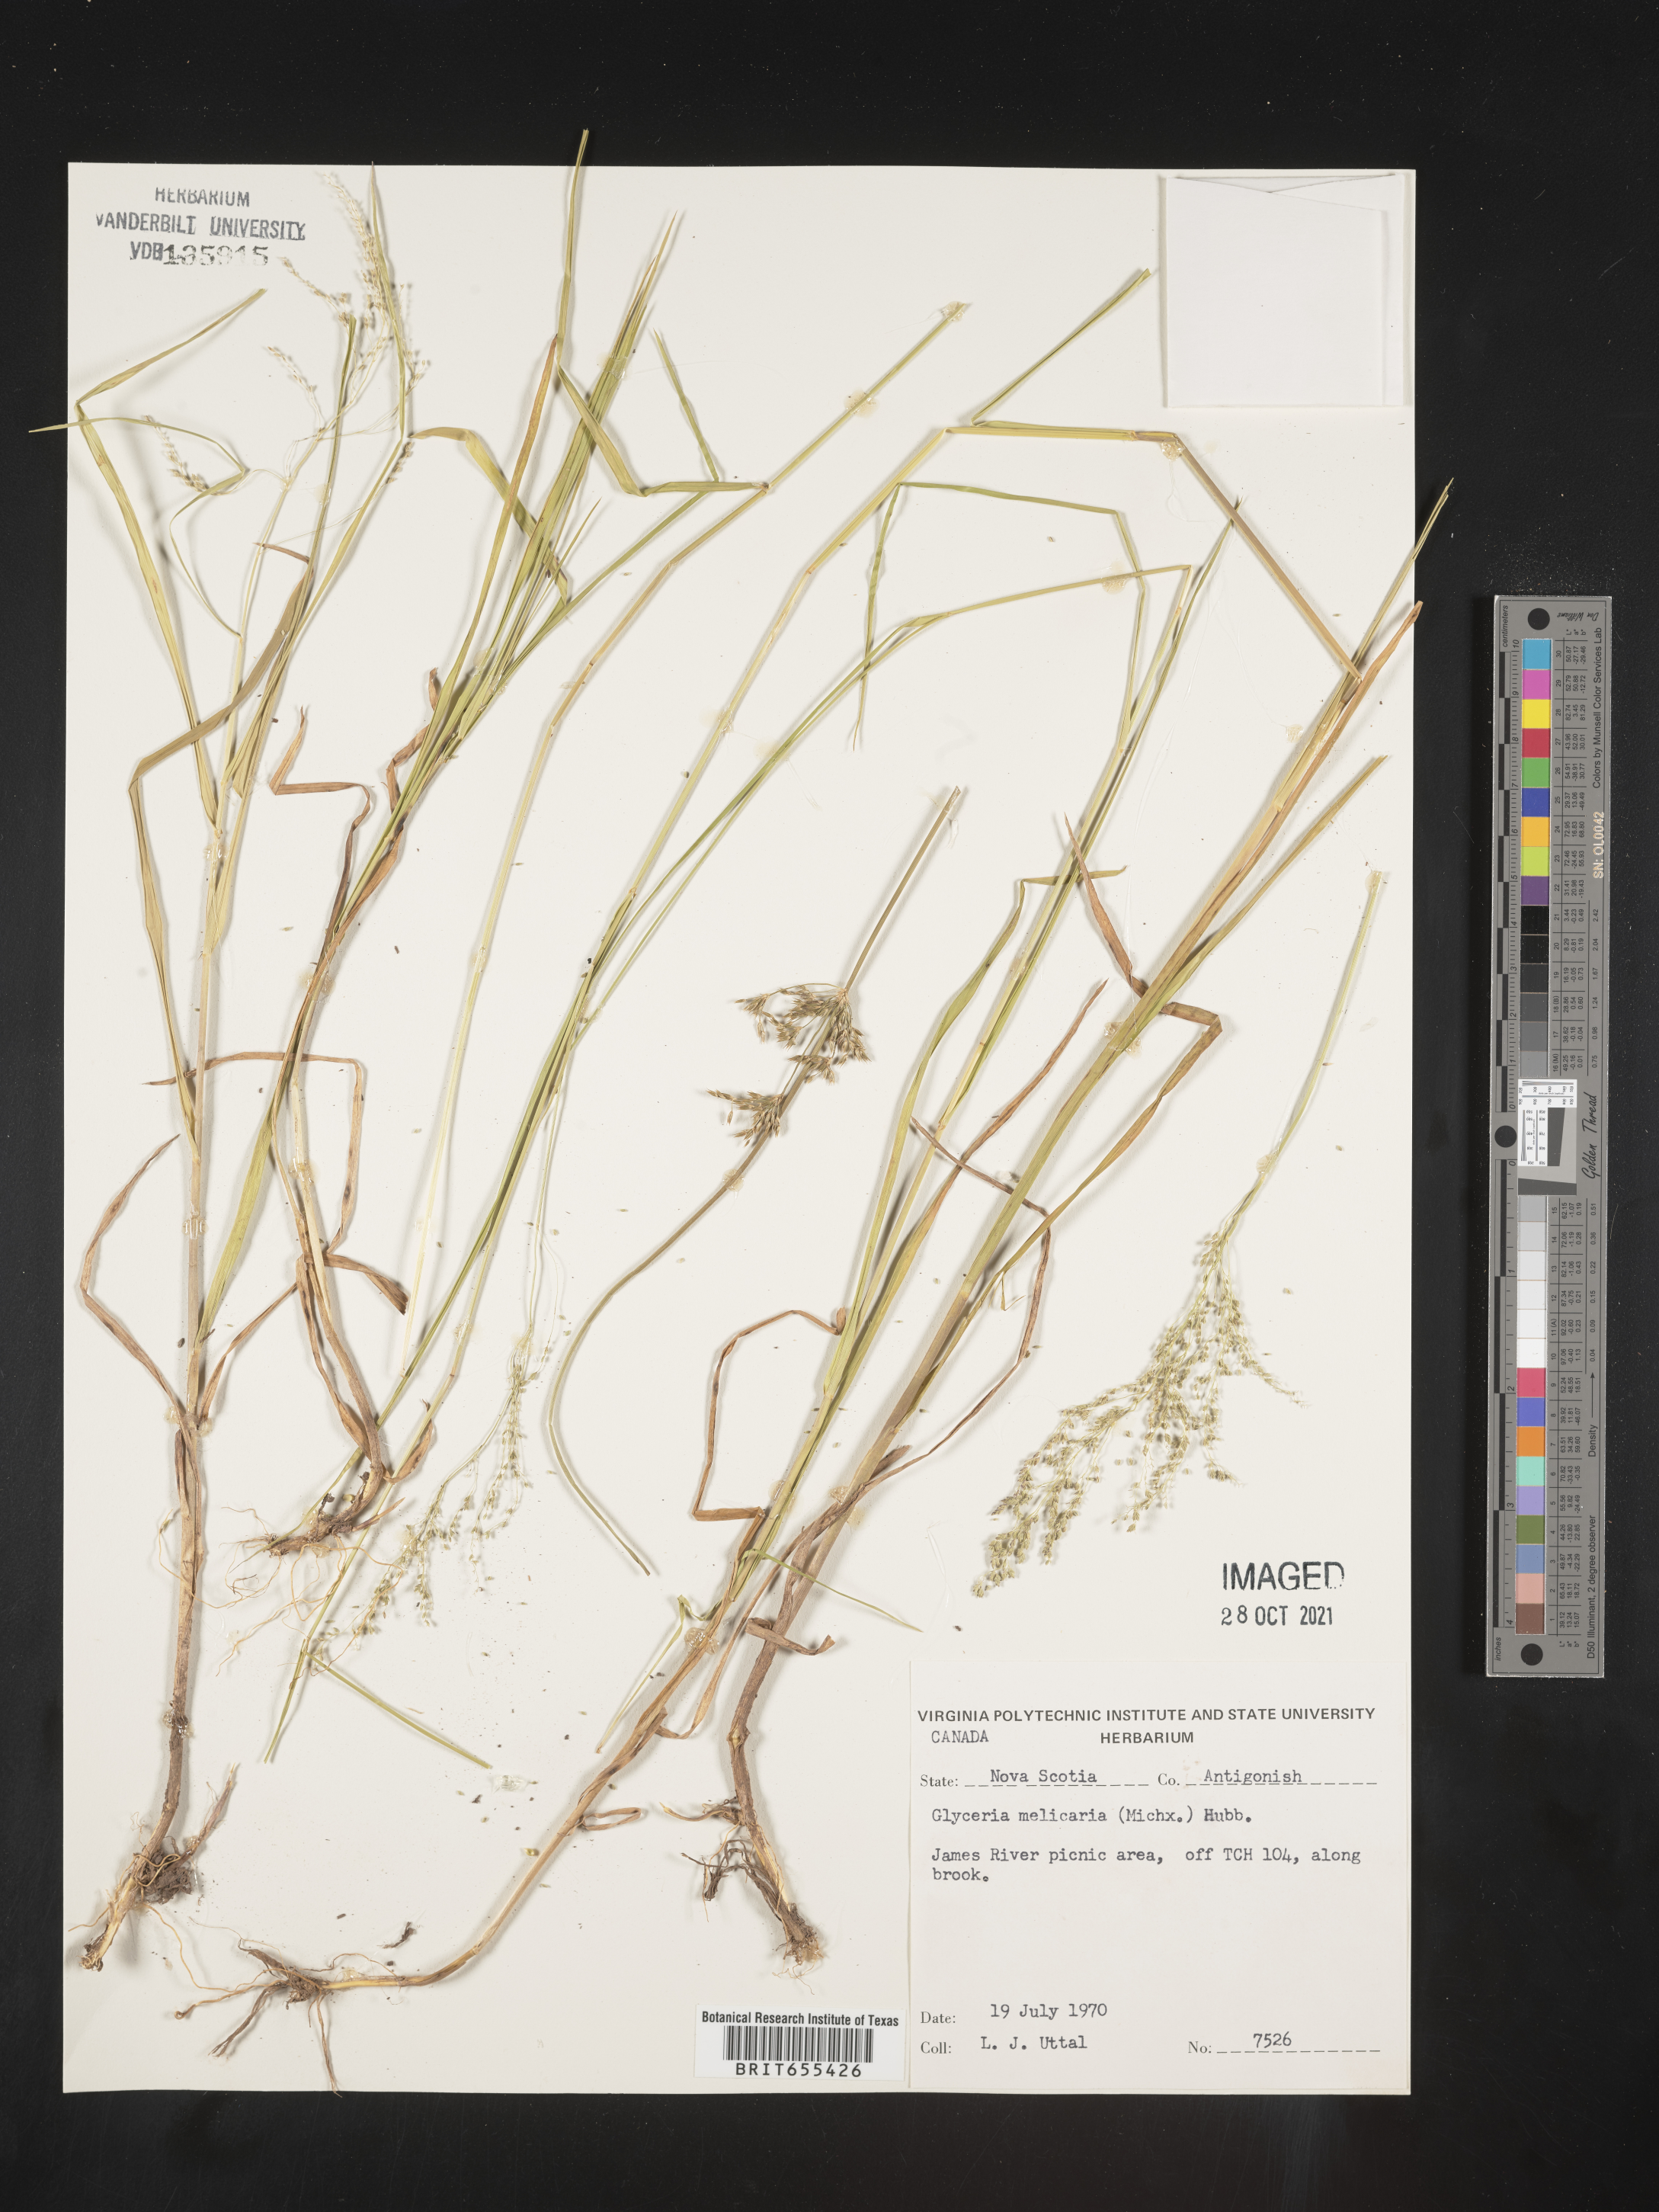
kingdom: Plantae
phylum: Tracheophyta
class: Liliopsida
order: Poales
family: Poaceae
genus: Glyceria
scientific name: Glyceria
